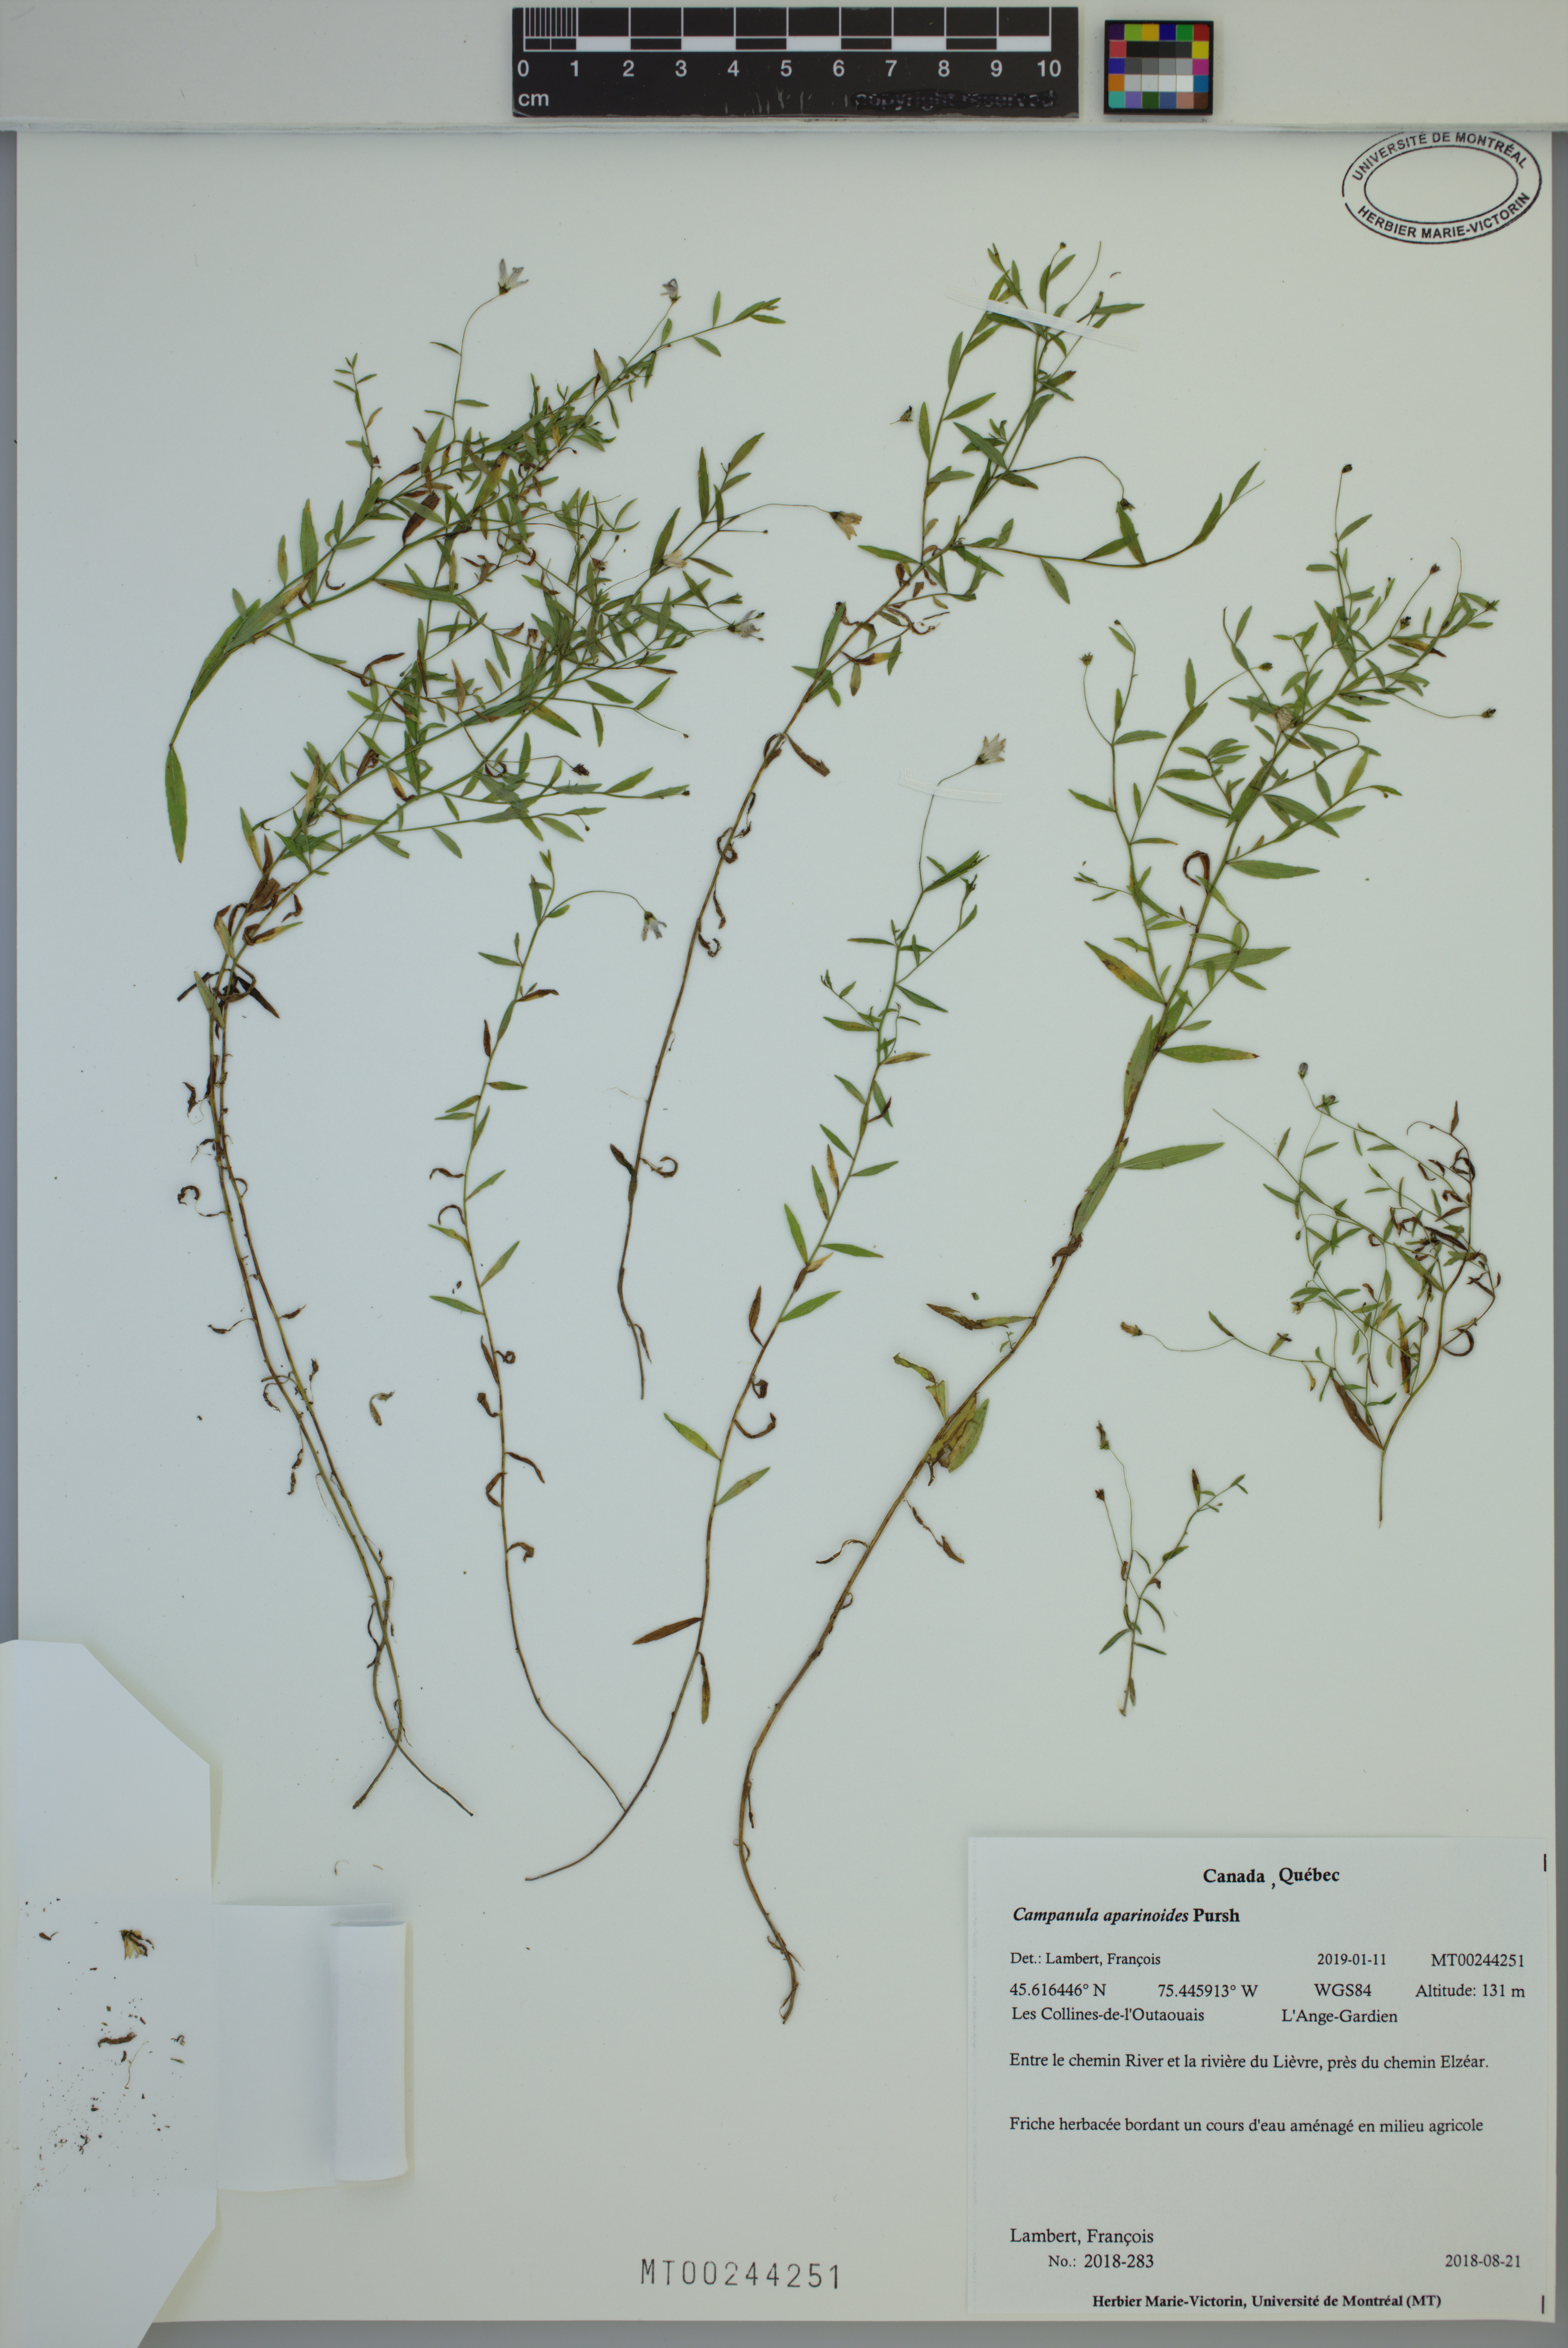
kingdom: Plantae
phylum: Tracheophyta
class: Magnoliopsida
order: Asterales
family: Campanulaceae
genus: Palustricodon
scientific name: Palustricodon aparinoides
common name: Bedstraw bellflower
